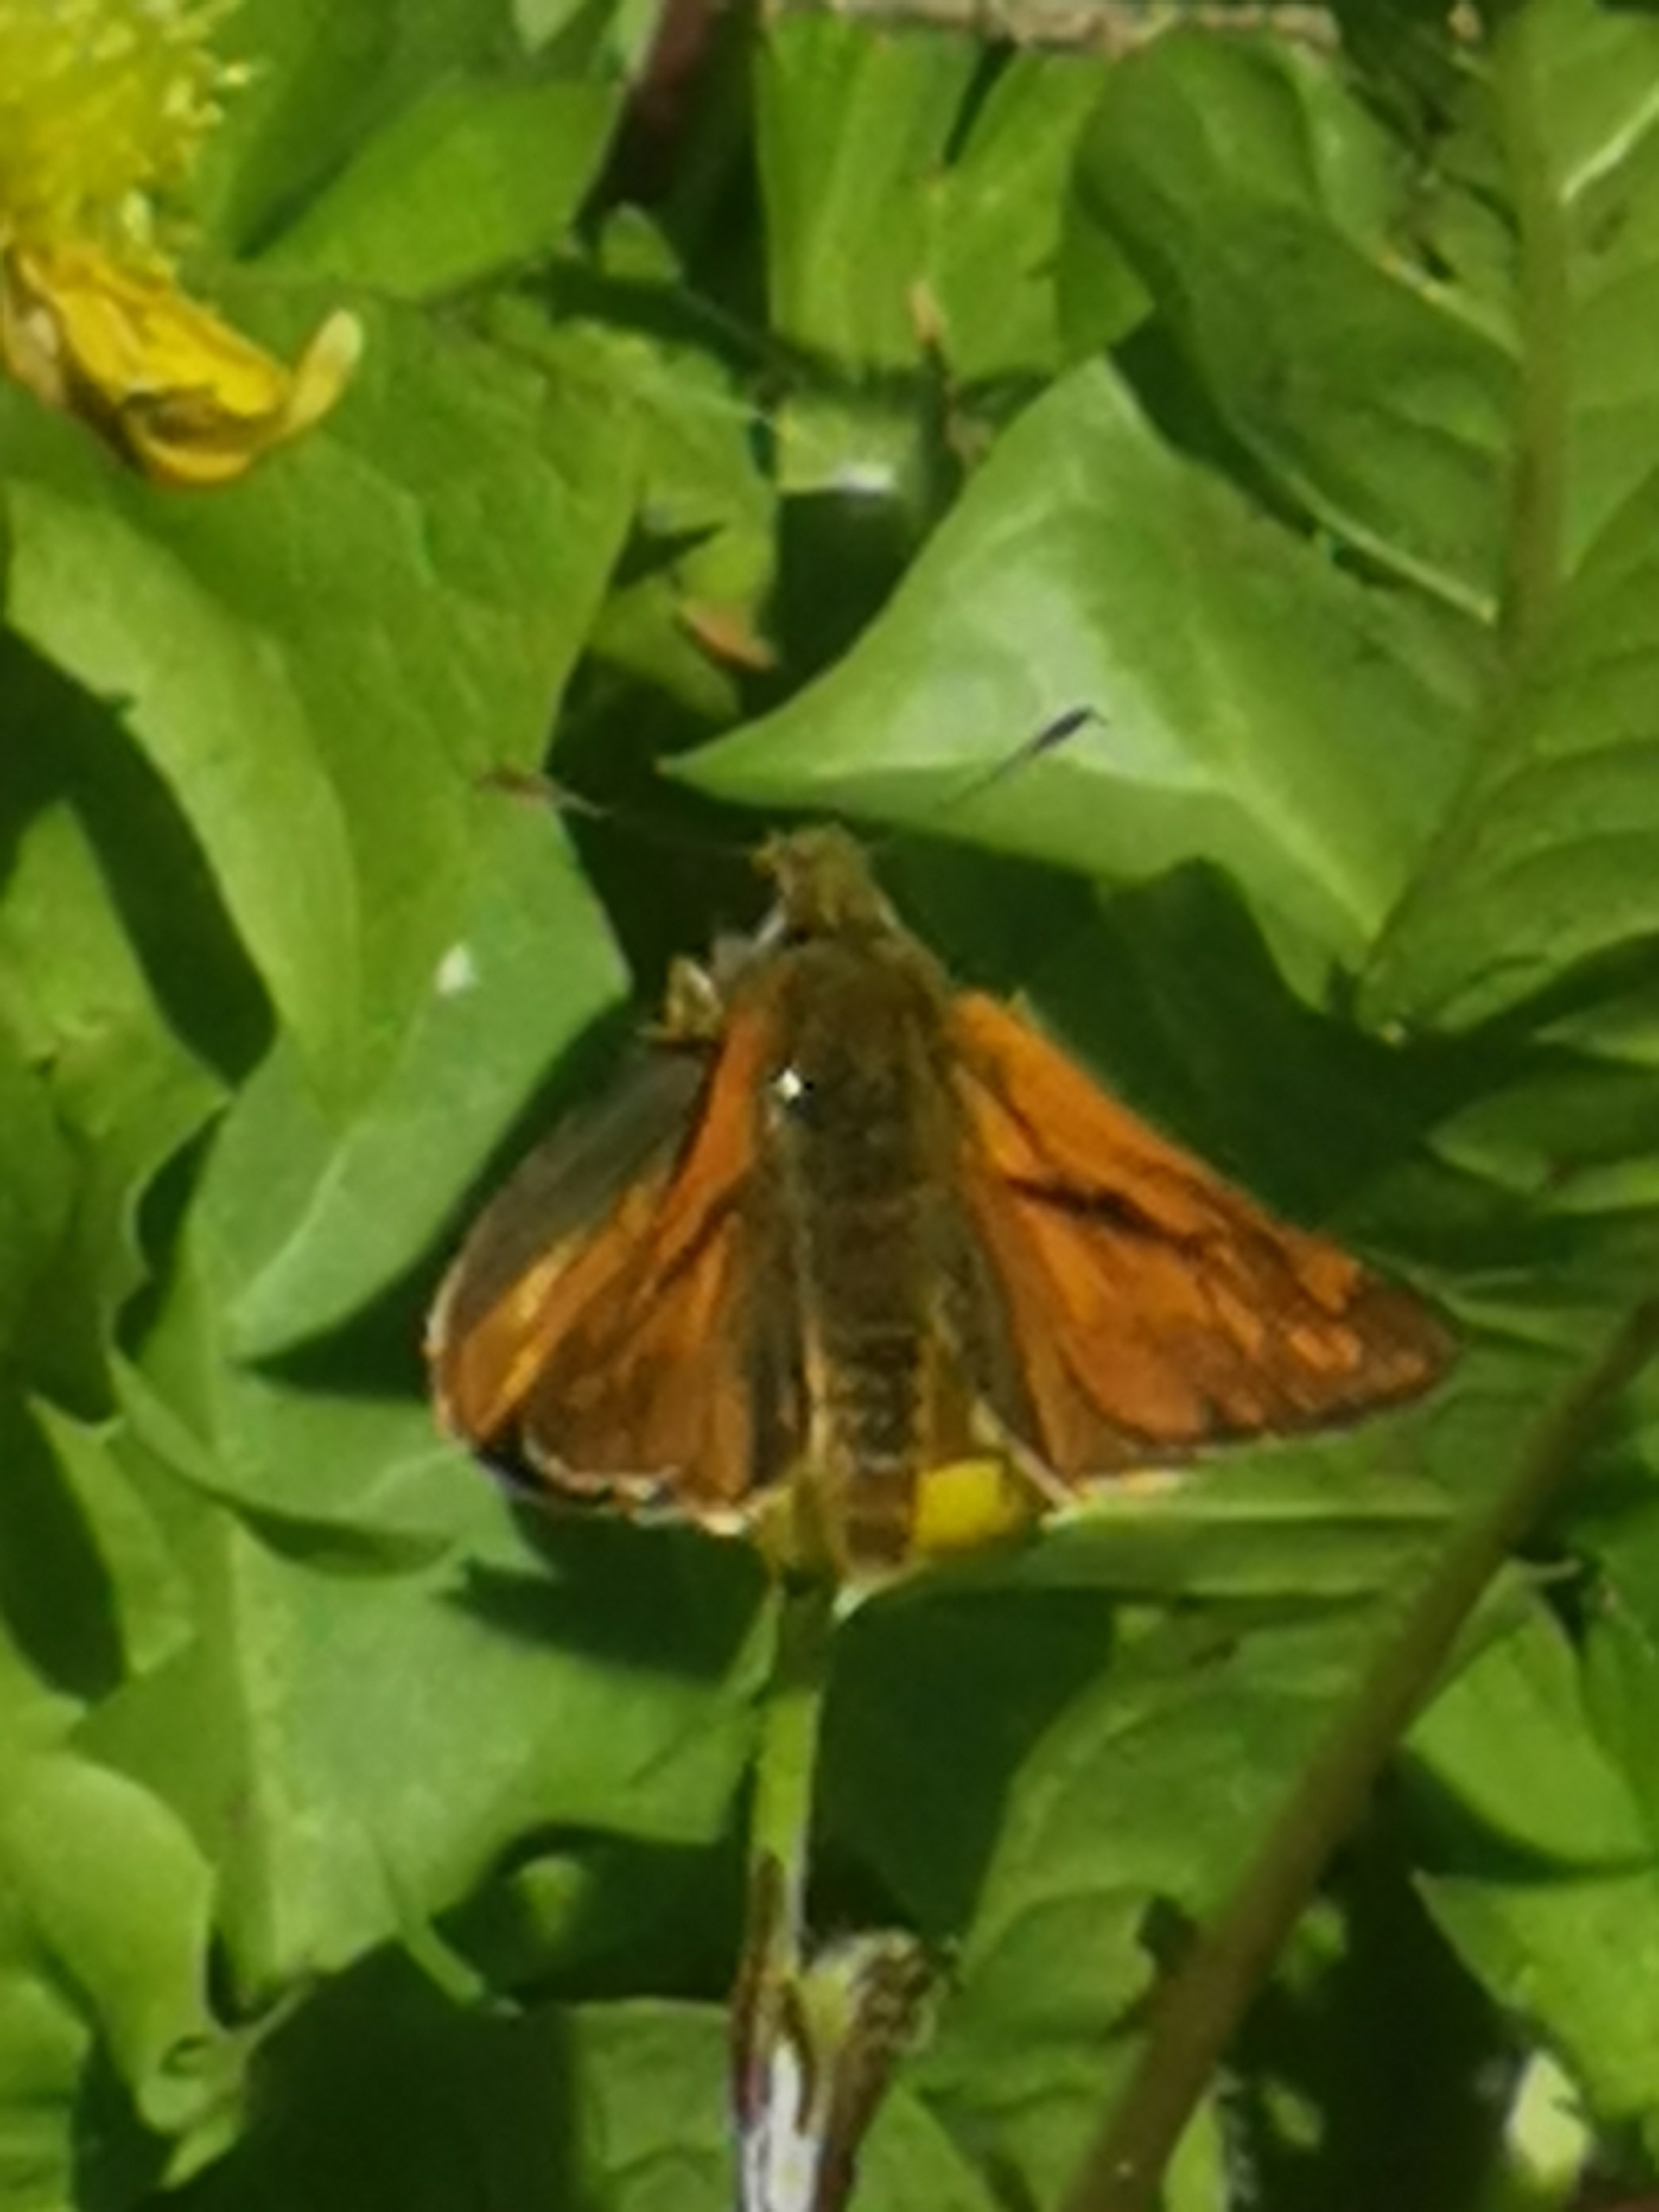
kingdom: Animalia
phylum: Arthropoda
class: Insecta
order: Lepidoptera
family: Hesperiidae
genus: Ochlodes
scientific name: Ochlodes venata
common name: Stor bredpande
